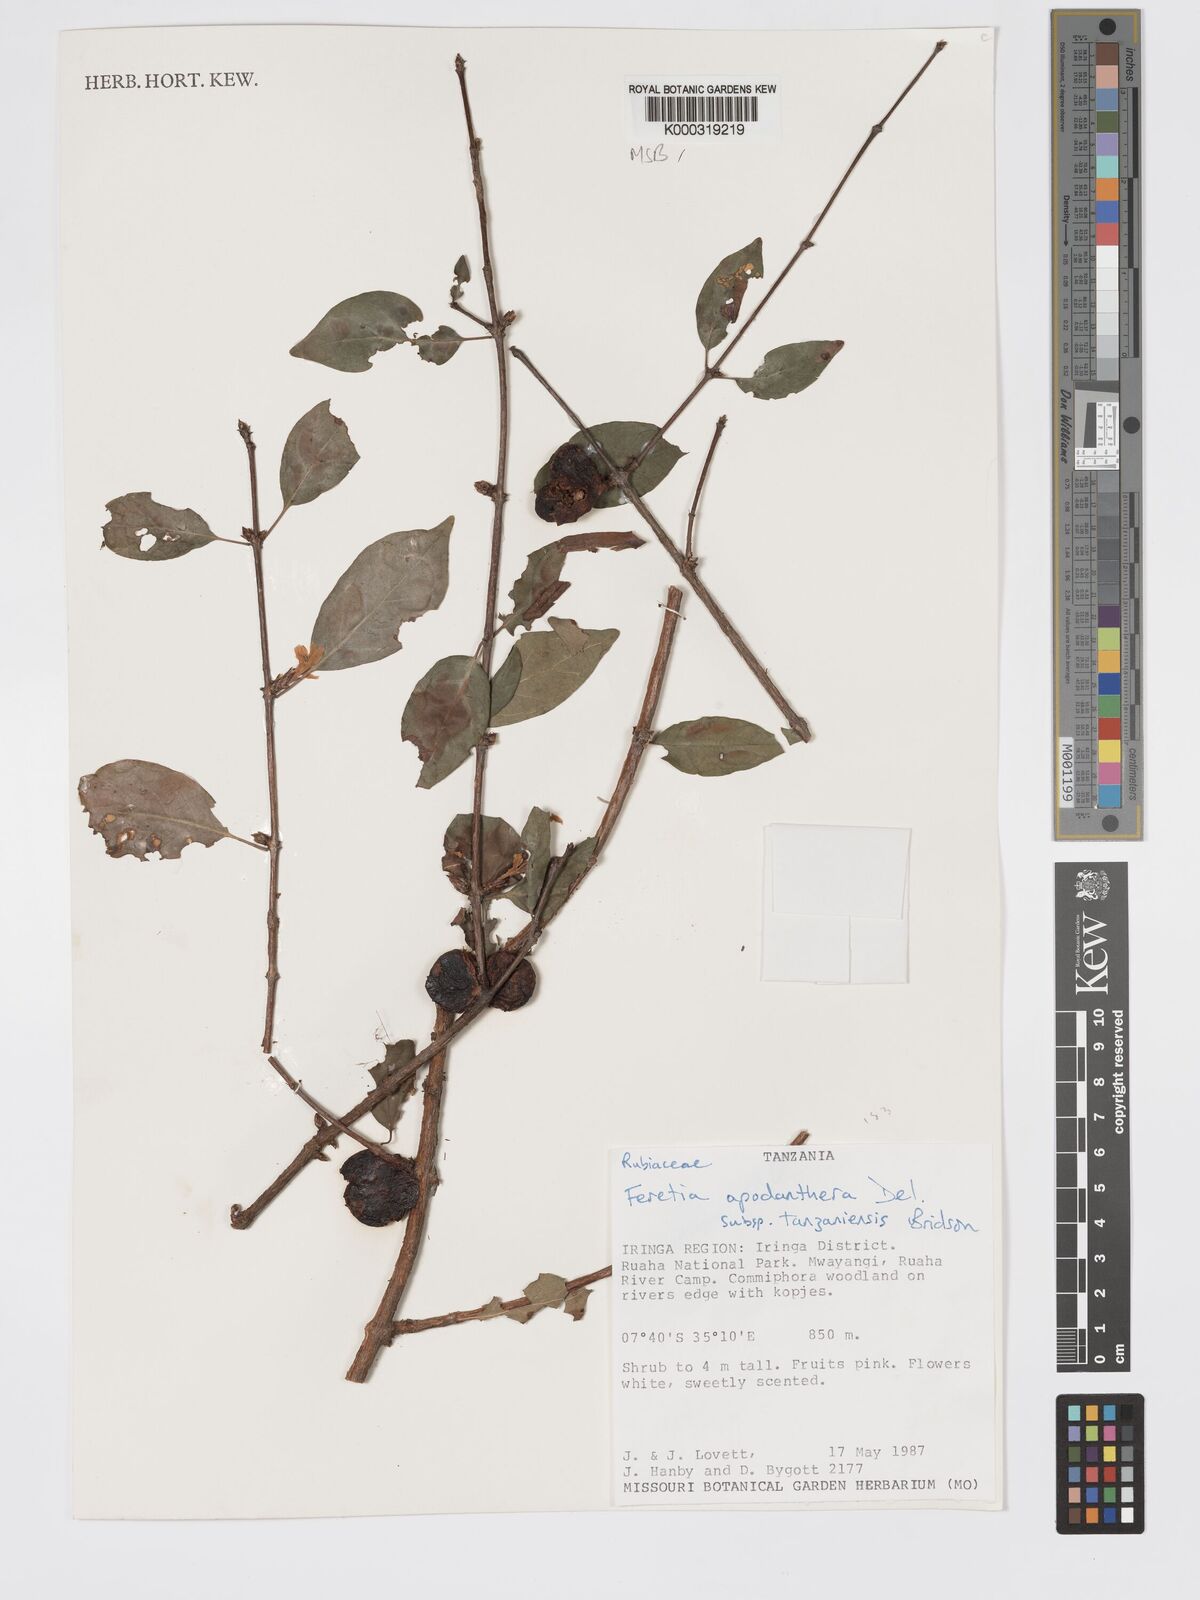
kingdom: Plantae
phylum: Tracheophyta
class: Magnoliopsida
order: Gentianales
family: Rubiaceae
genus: Feretia
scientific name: Feretia apodanthera
